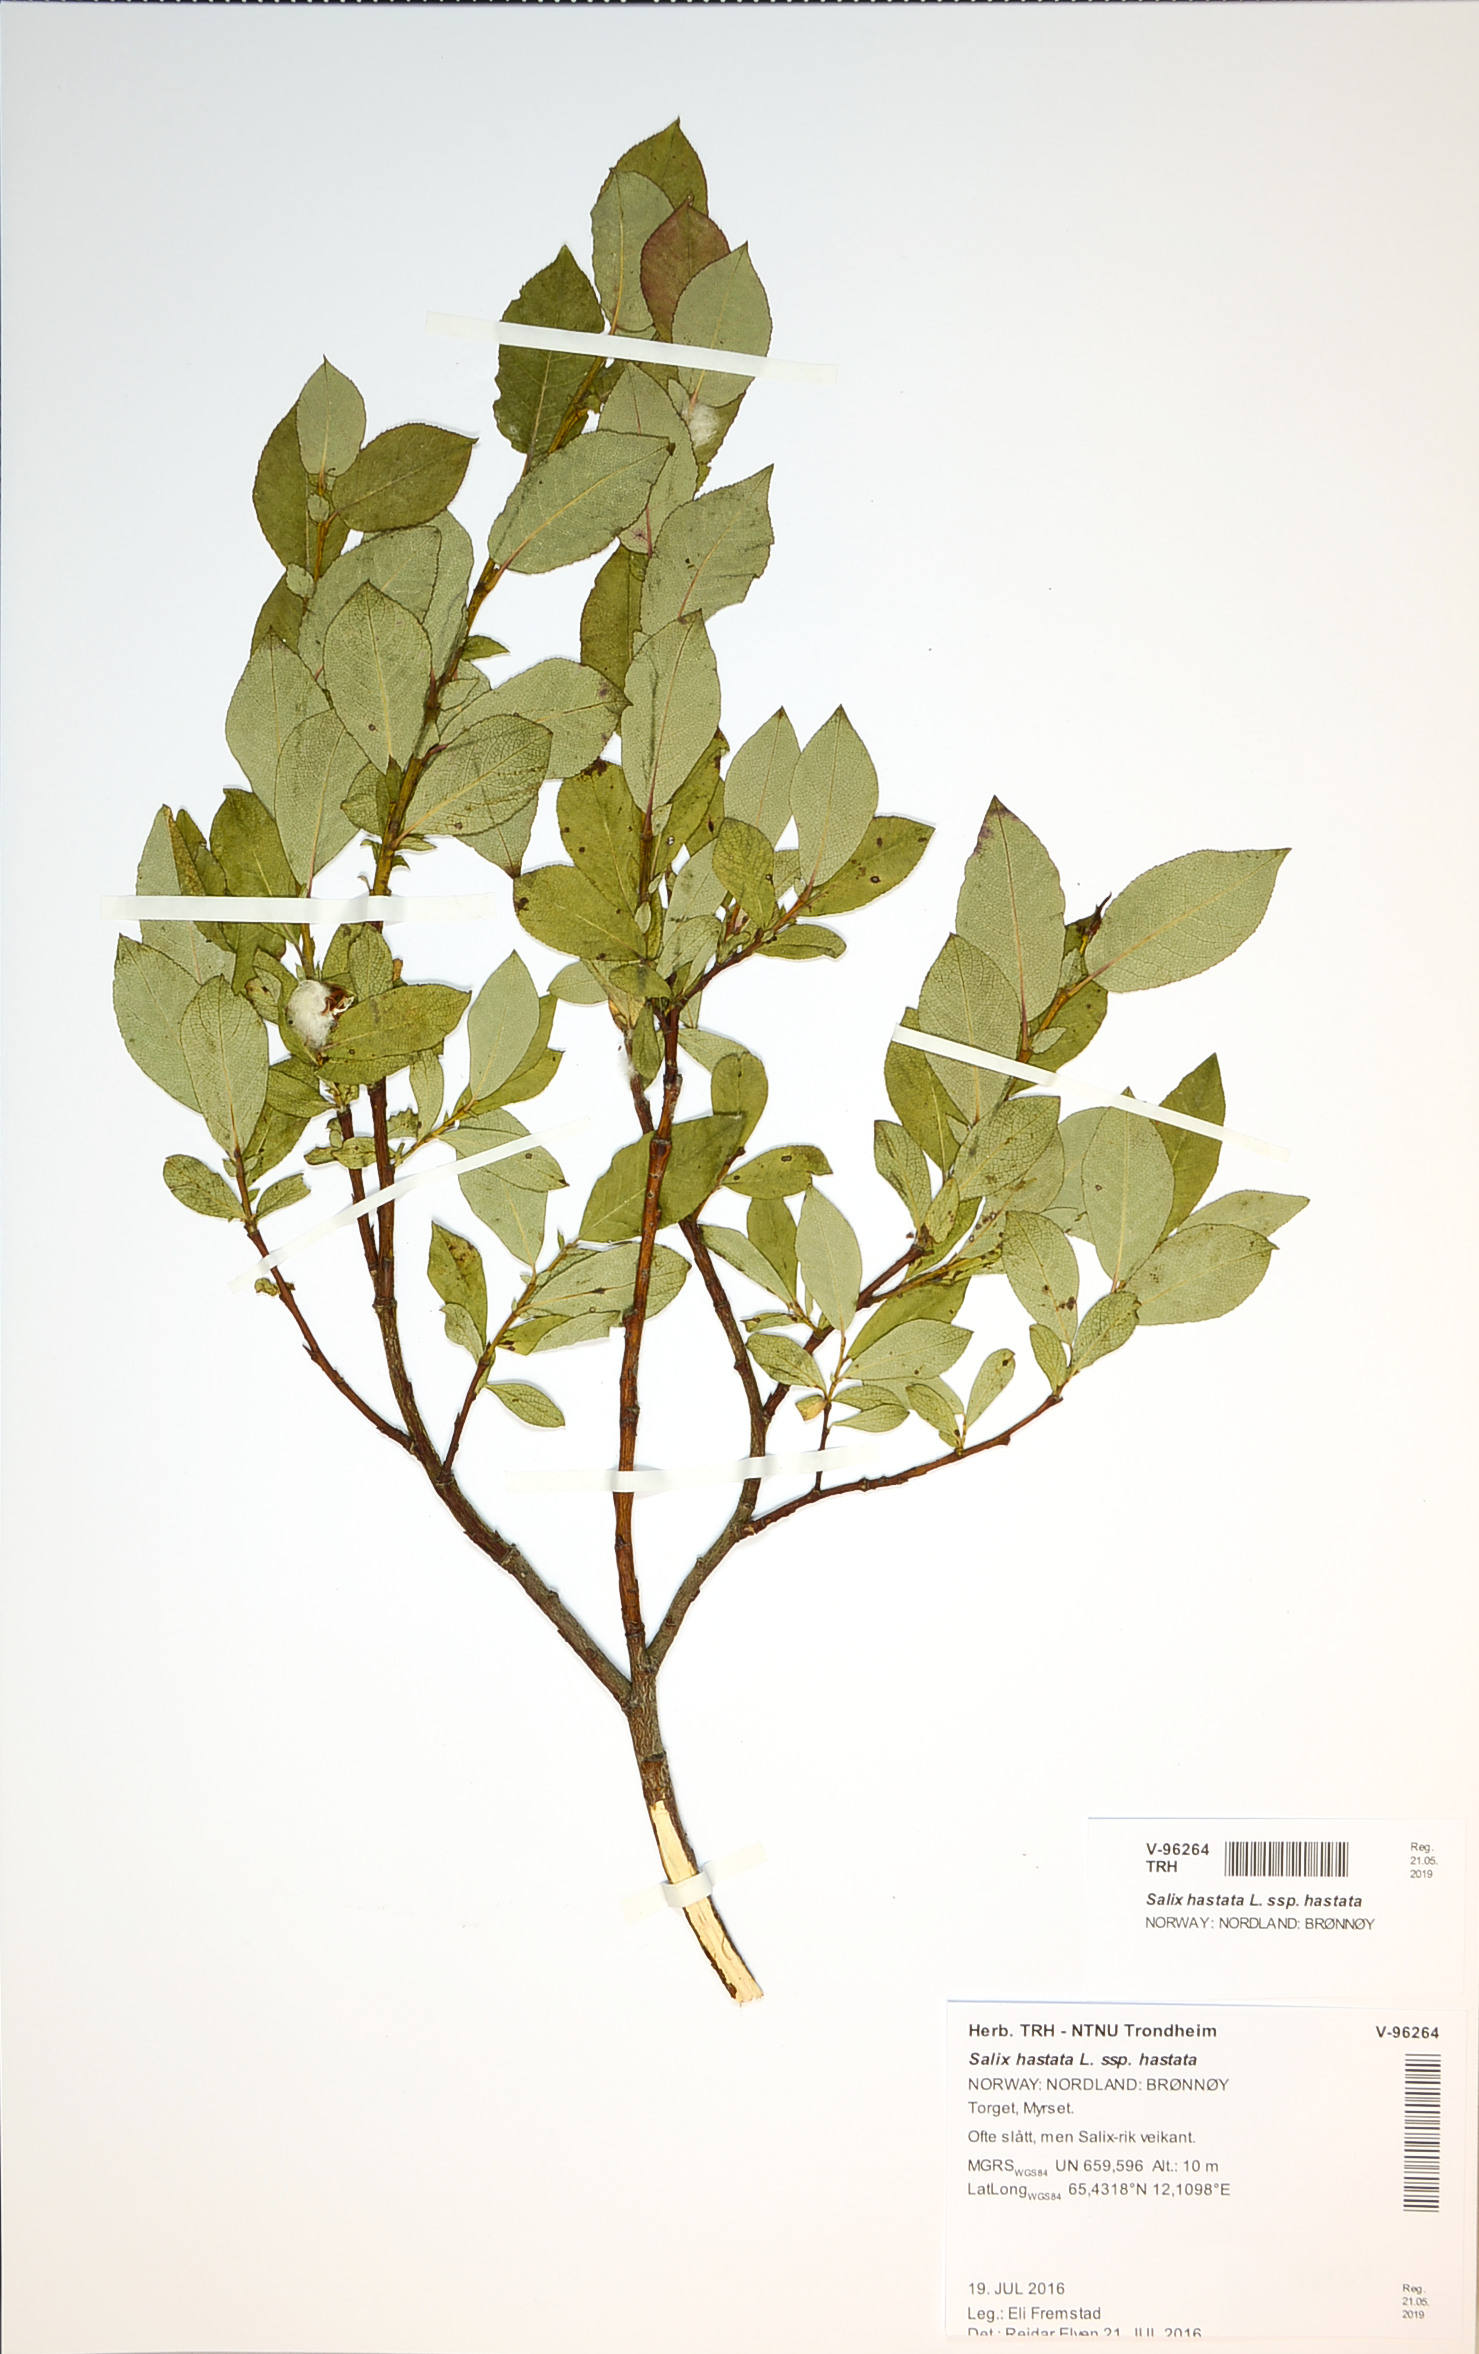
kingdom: Plantae
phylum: Tracheophyta
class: Magnoliopsida
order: Malpighiales
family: Salicaceae
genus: Salix
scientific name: Salix hastata
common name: Halberd willow
